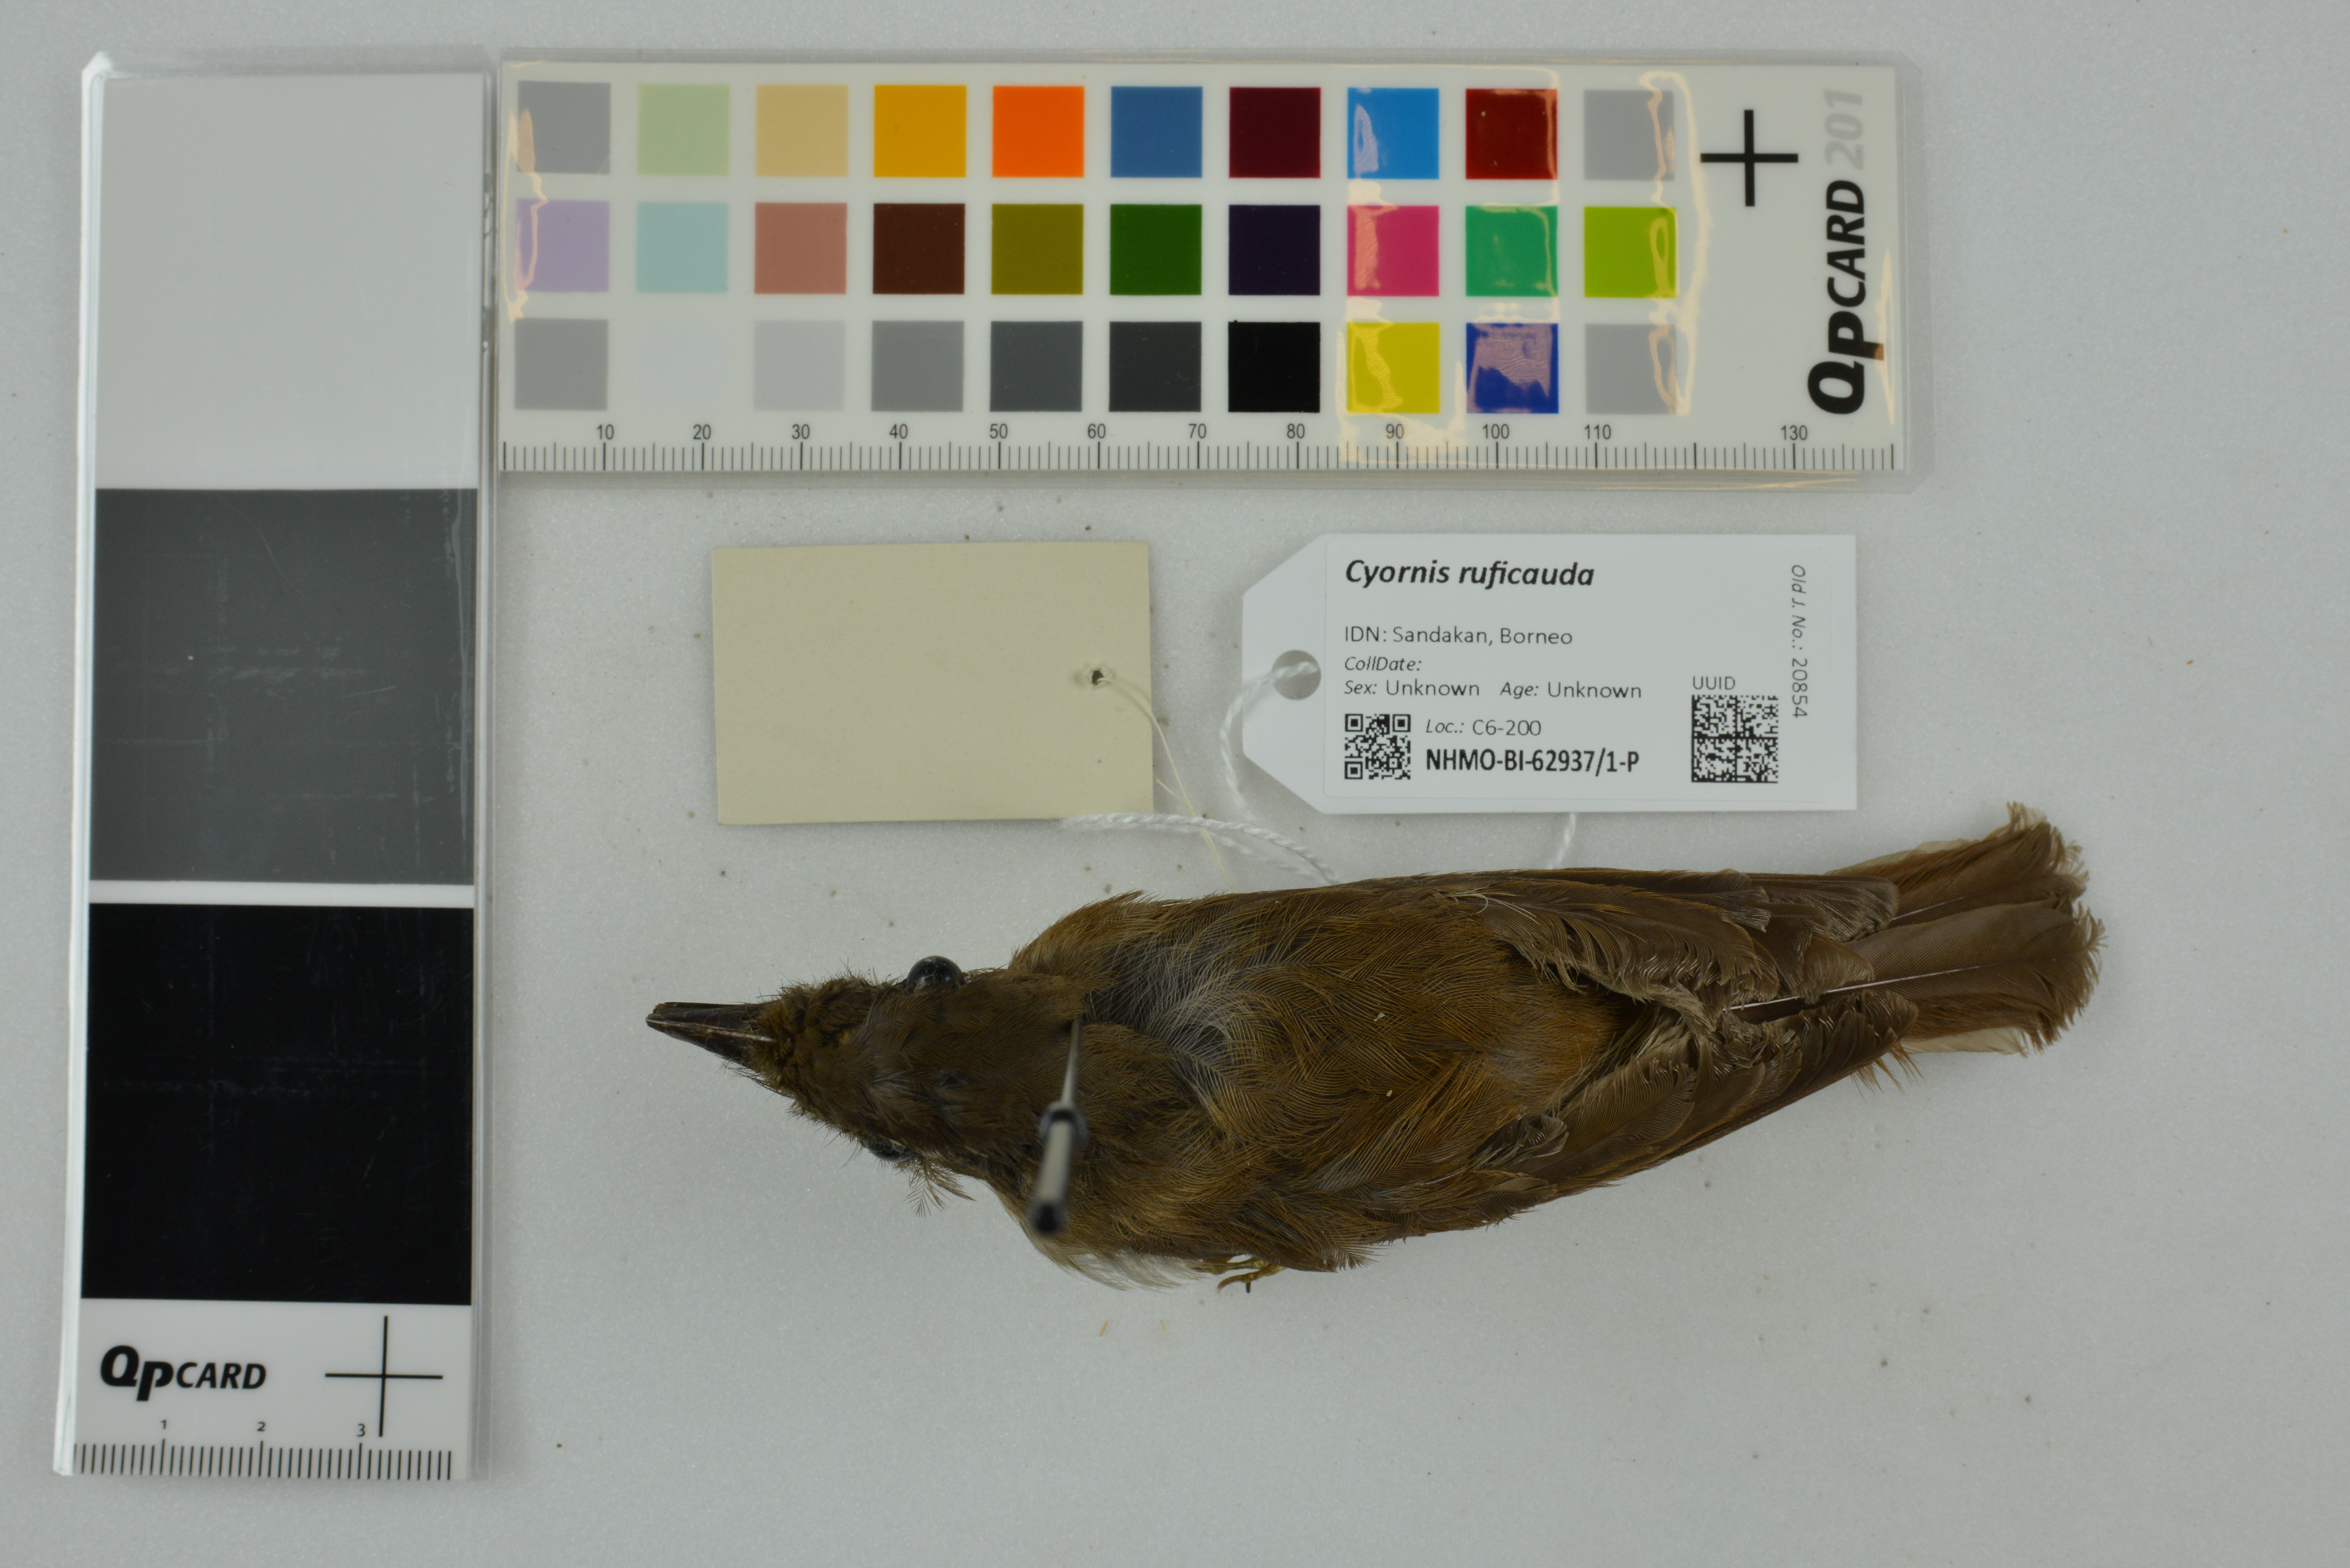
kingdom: Animalia
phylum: Chordata
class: Aves
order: Passeriformes
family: Muscicapidae
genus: Rhinomyias
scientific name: Rhinomyias ruficauda
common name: Rufous-tailed jungle flycatcher
